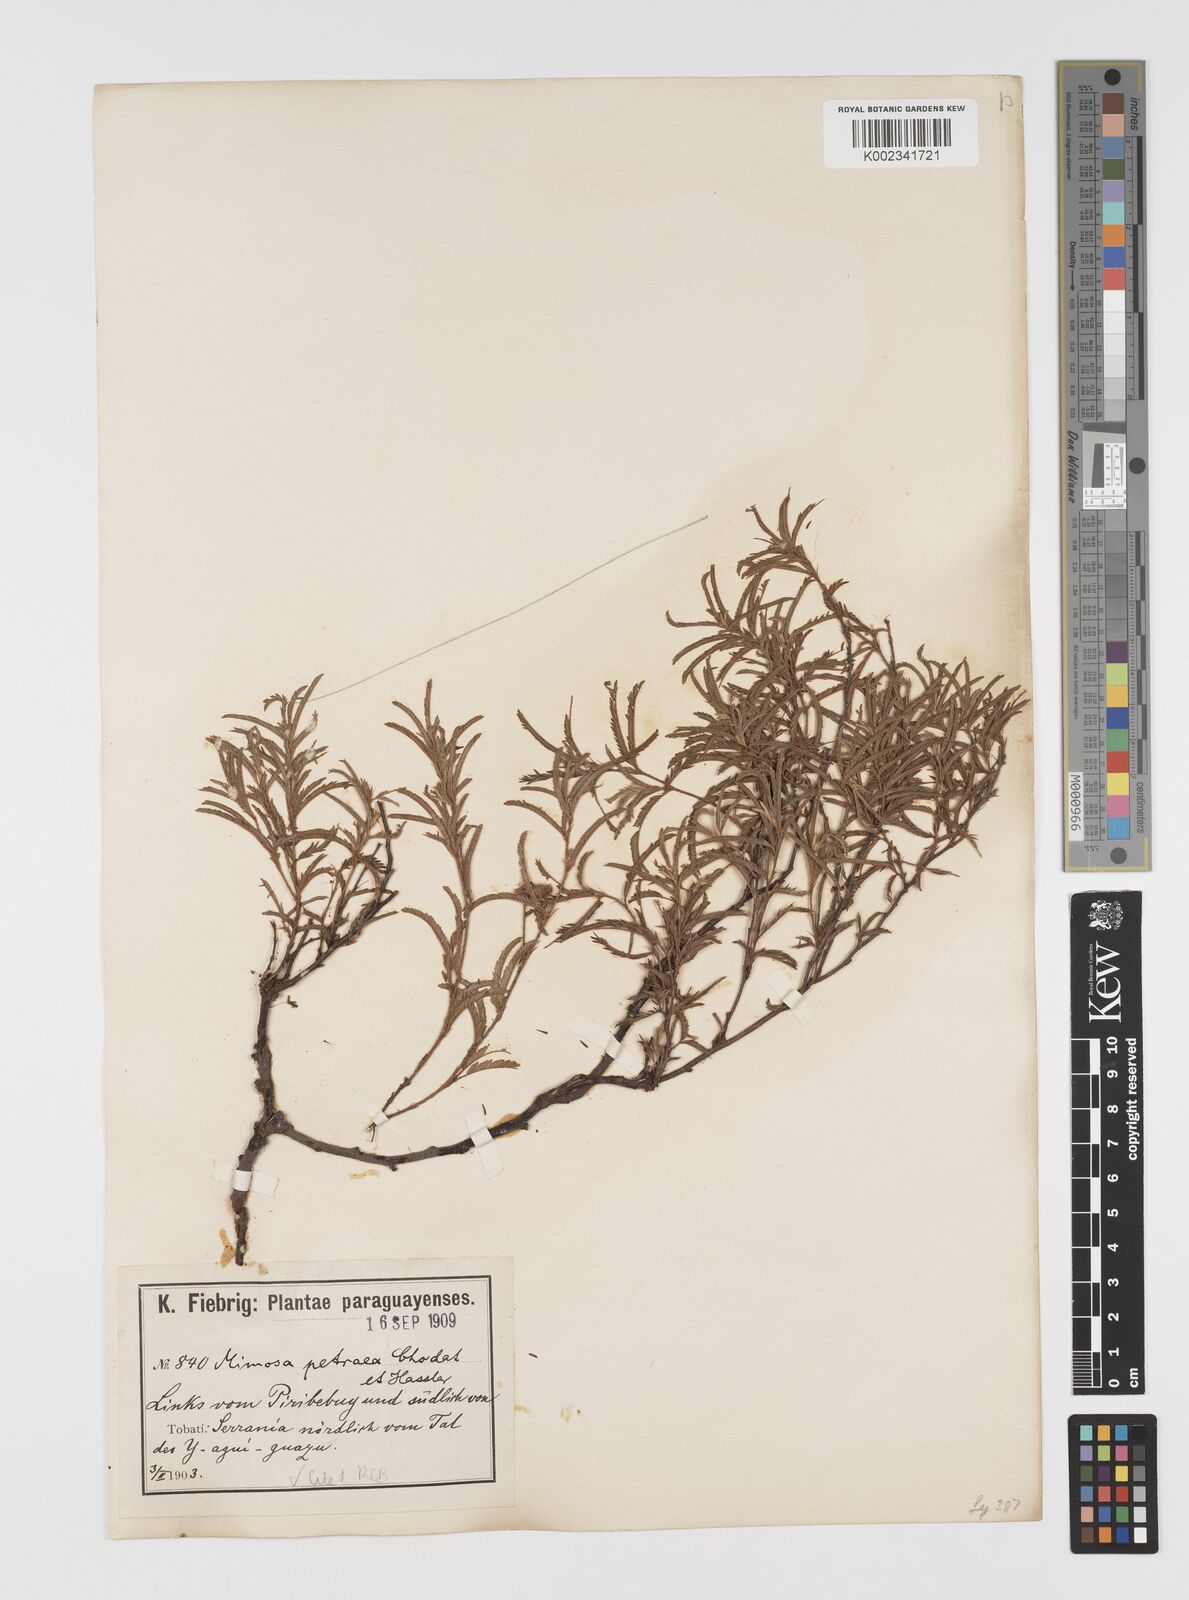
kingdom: Plantae
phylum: Tracheophyta
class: Magnoliopsida
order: Fabales
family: Fabaceae
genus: Mimosa
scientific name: Mimosa petraea
